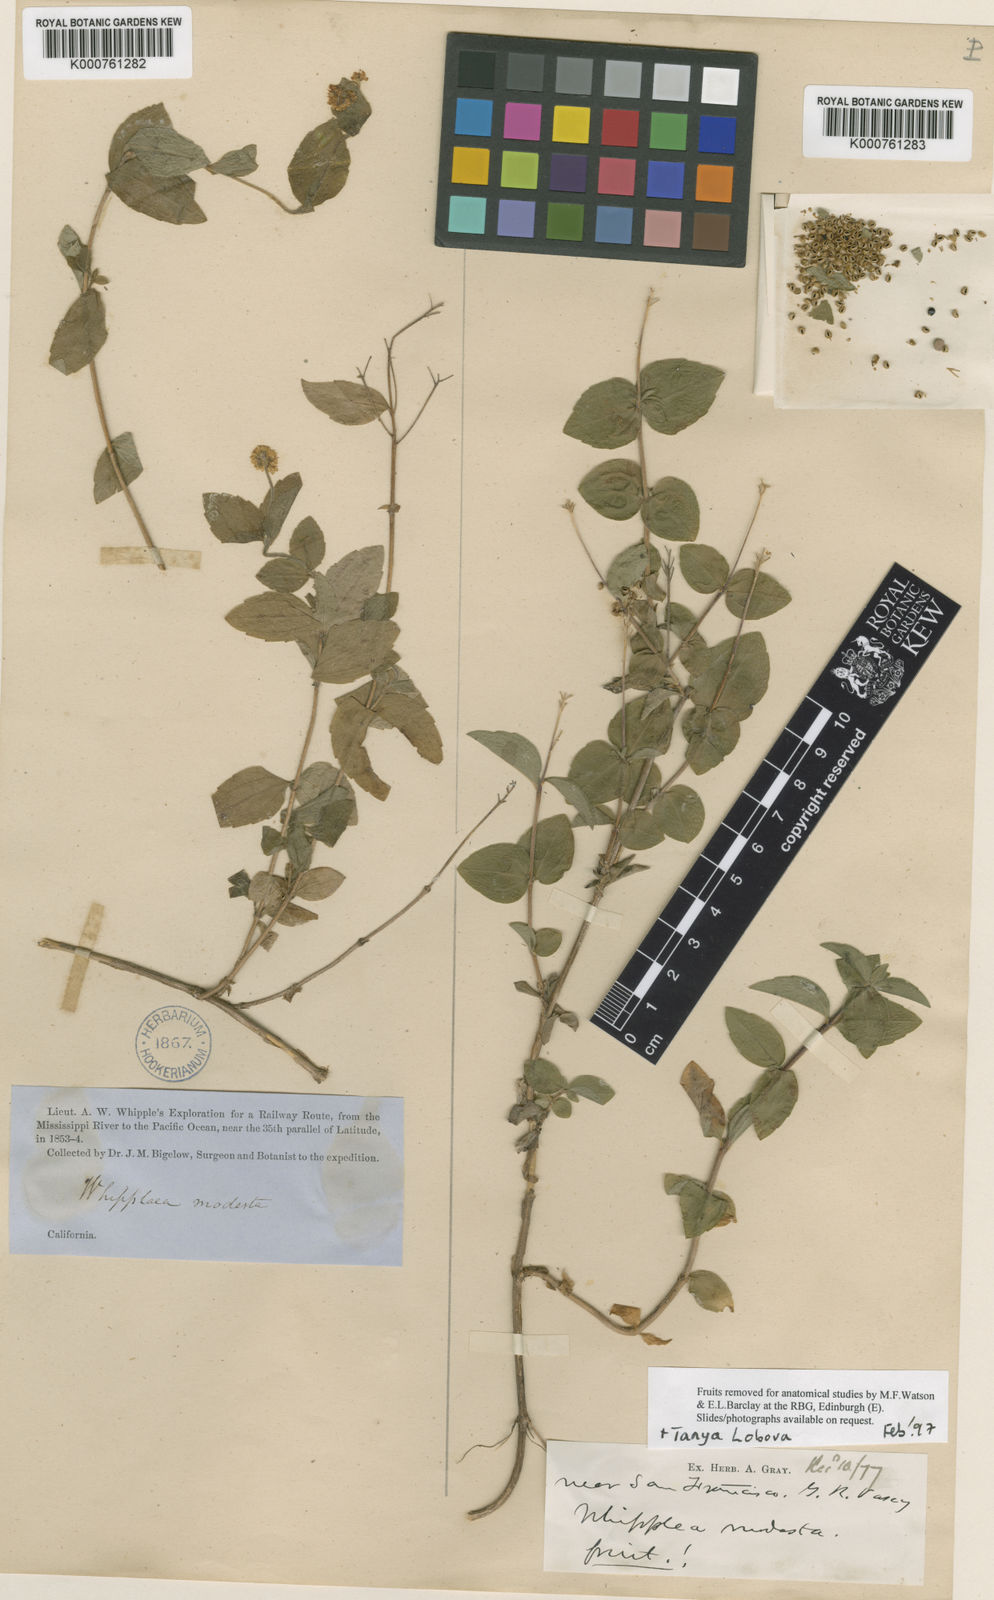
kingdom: Plantae
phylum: Tracheophyta
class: Magnoliopsida
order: Cornales
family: Hydrangeaceae
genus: Whipplea
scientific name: Whipplea modesta
